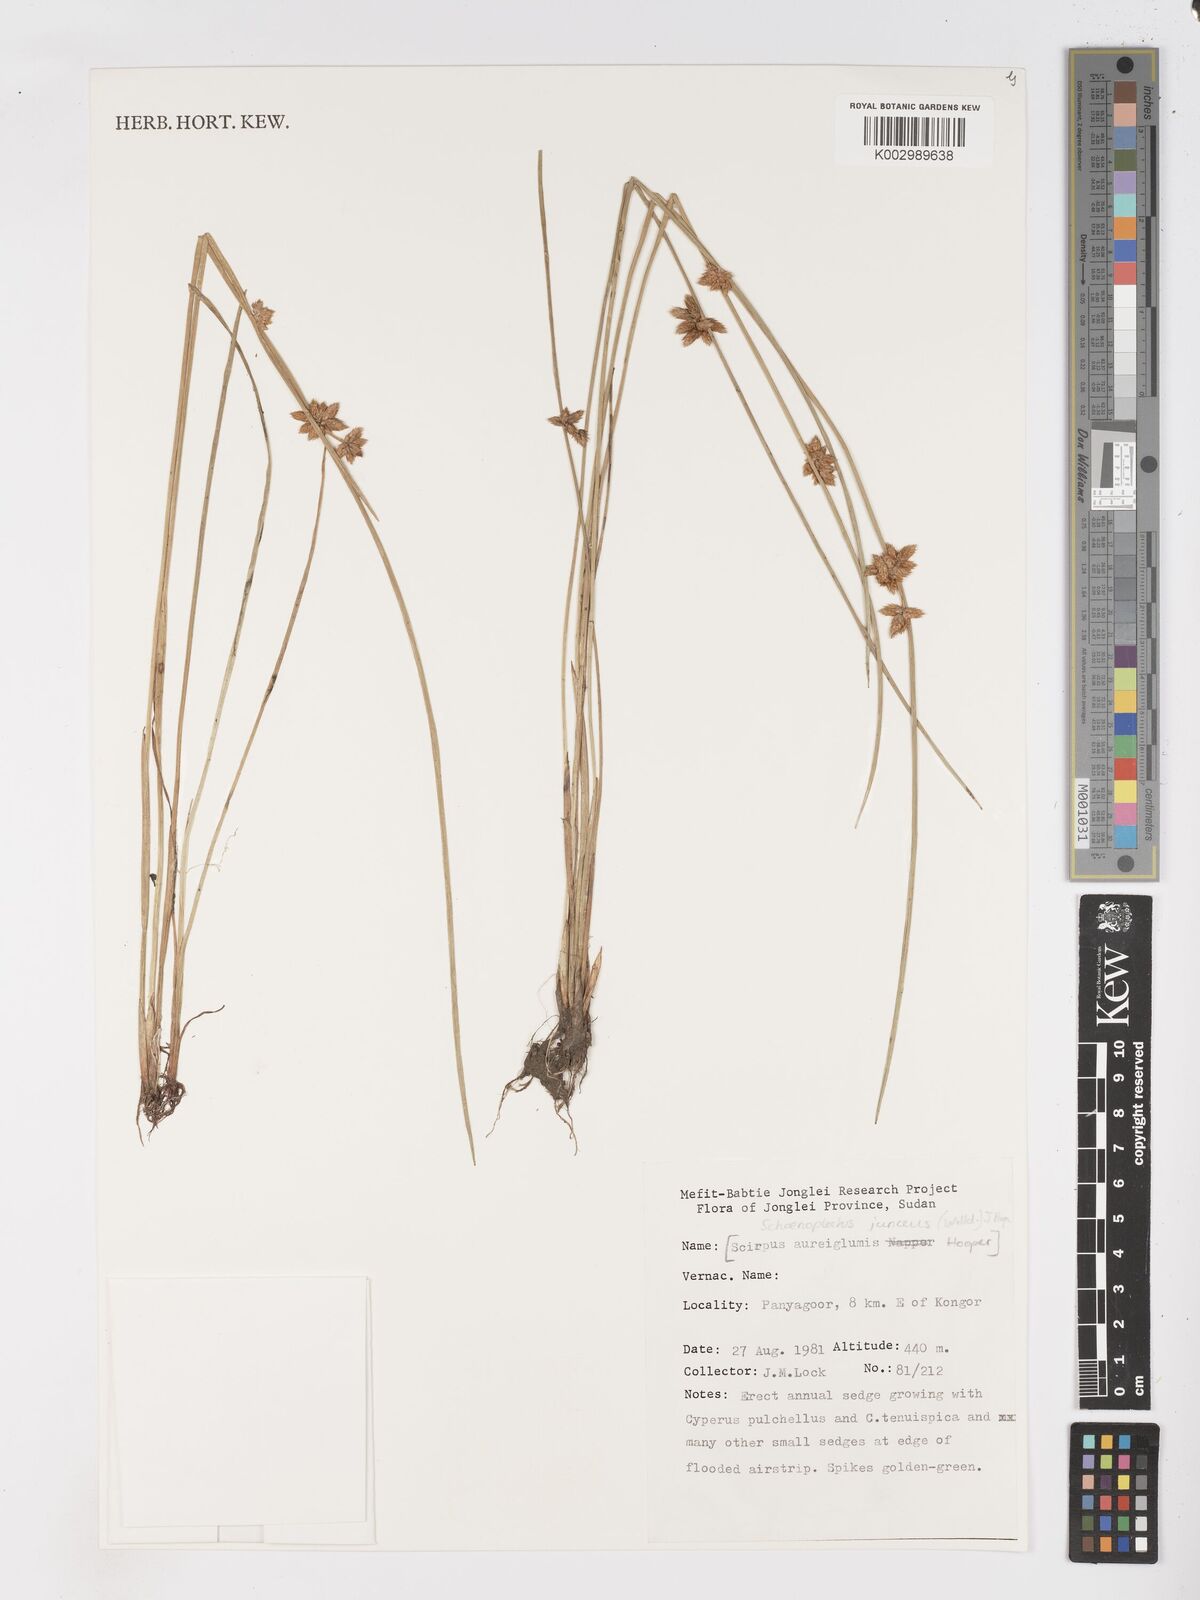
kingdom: Plantae
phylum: Tracheophyta
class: Liliopsida
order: Poales
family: Cyperaceae
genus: Schoenoplectiella
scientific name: Schoenoplectiella juncea
